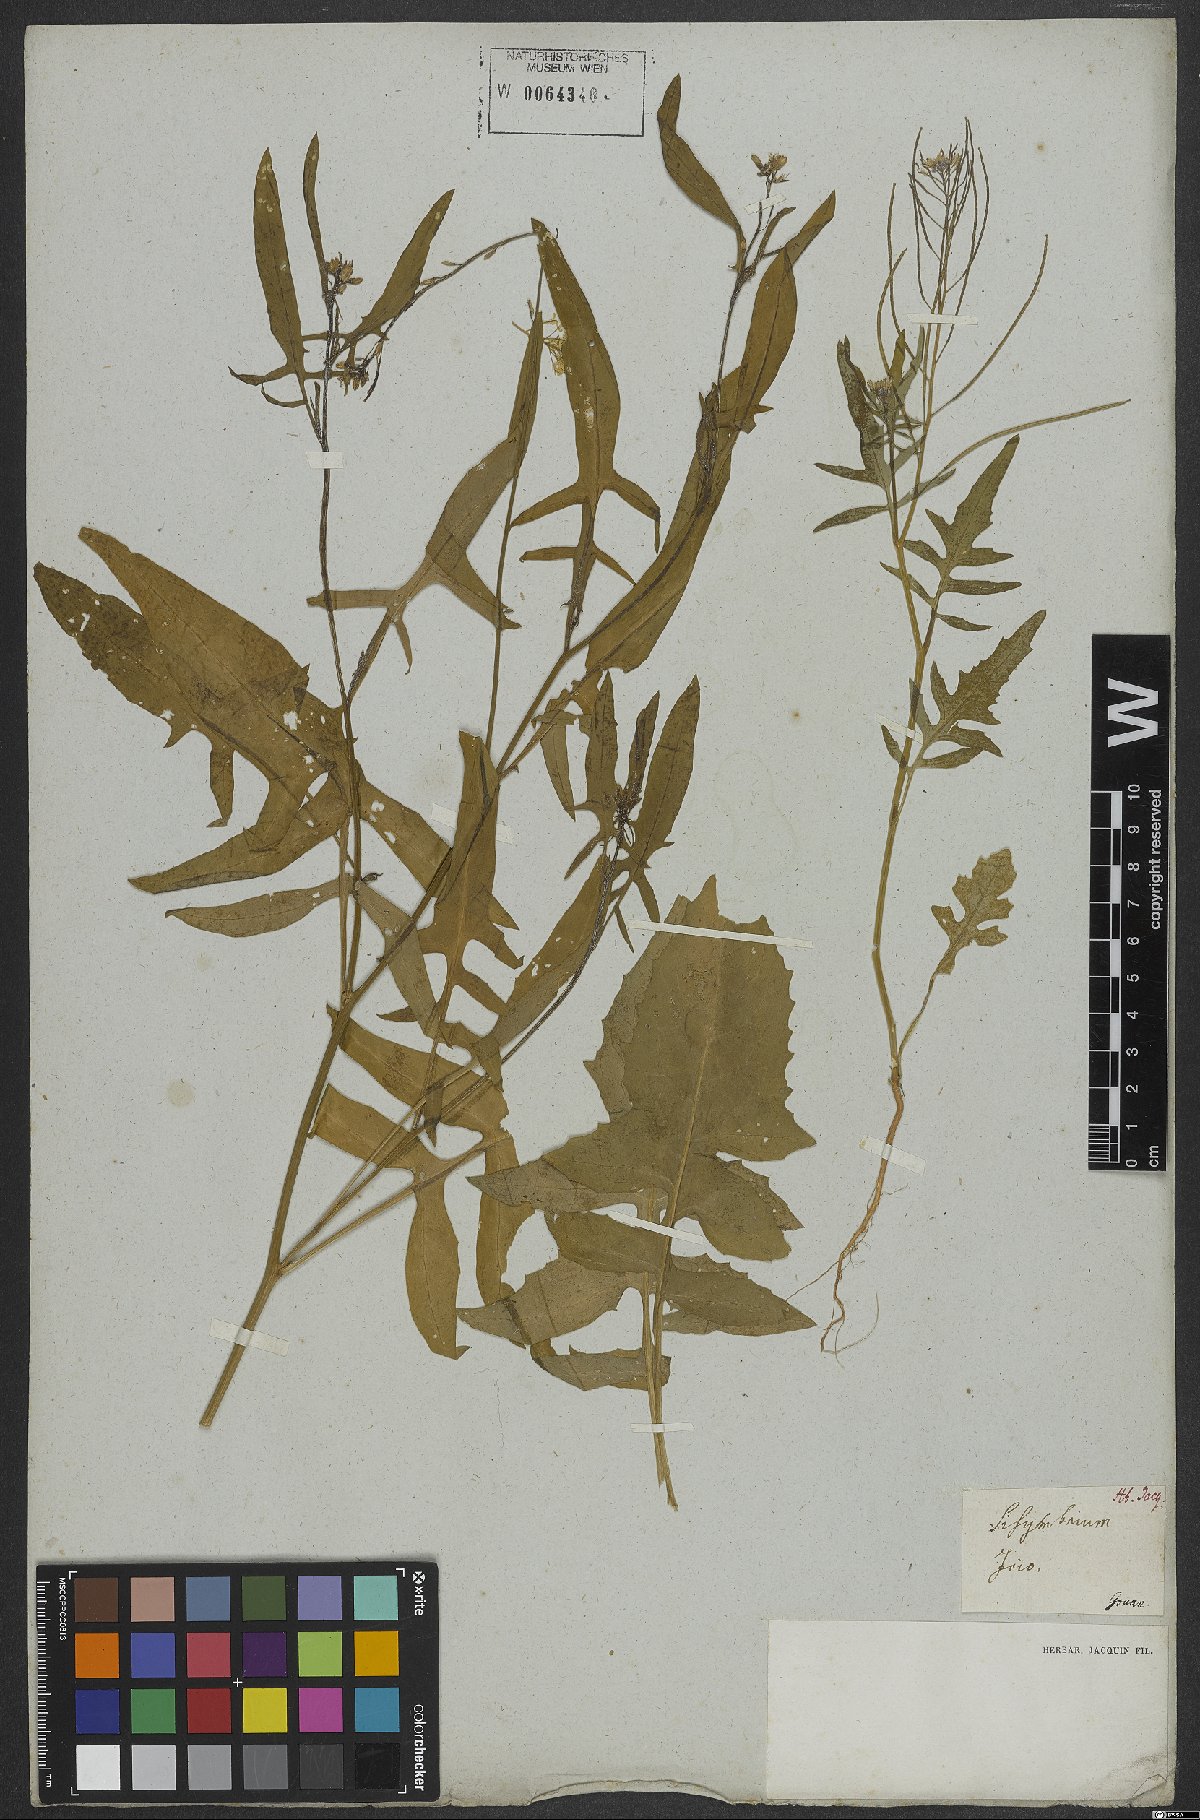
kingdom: Plantae
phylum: Tracheophyta
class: Magnoliopsida
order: Brassicales
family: Brassicaceae
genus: Sisymbrium
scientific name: Sisymbrium irio
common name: London rocket
